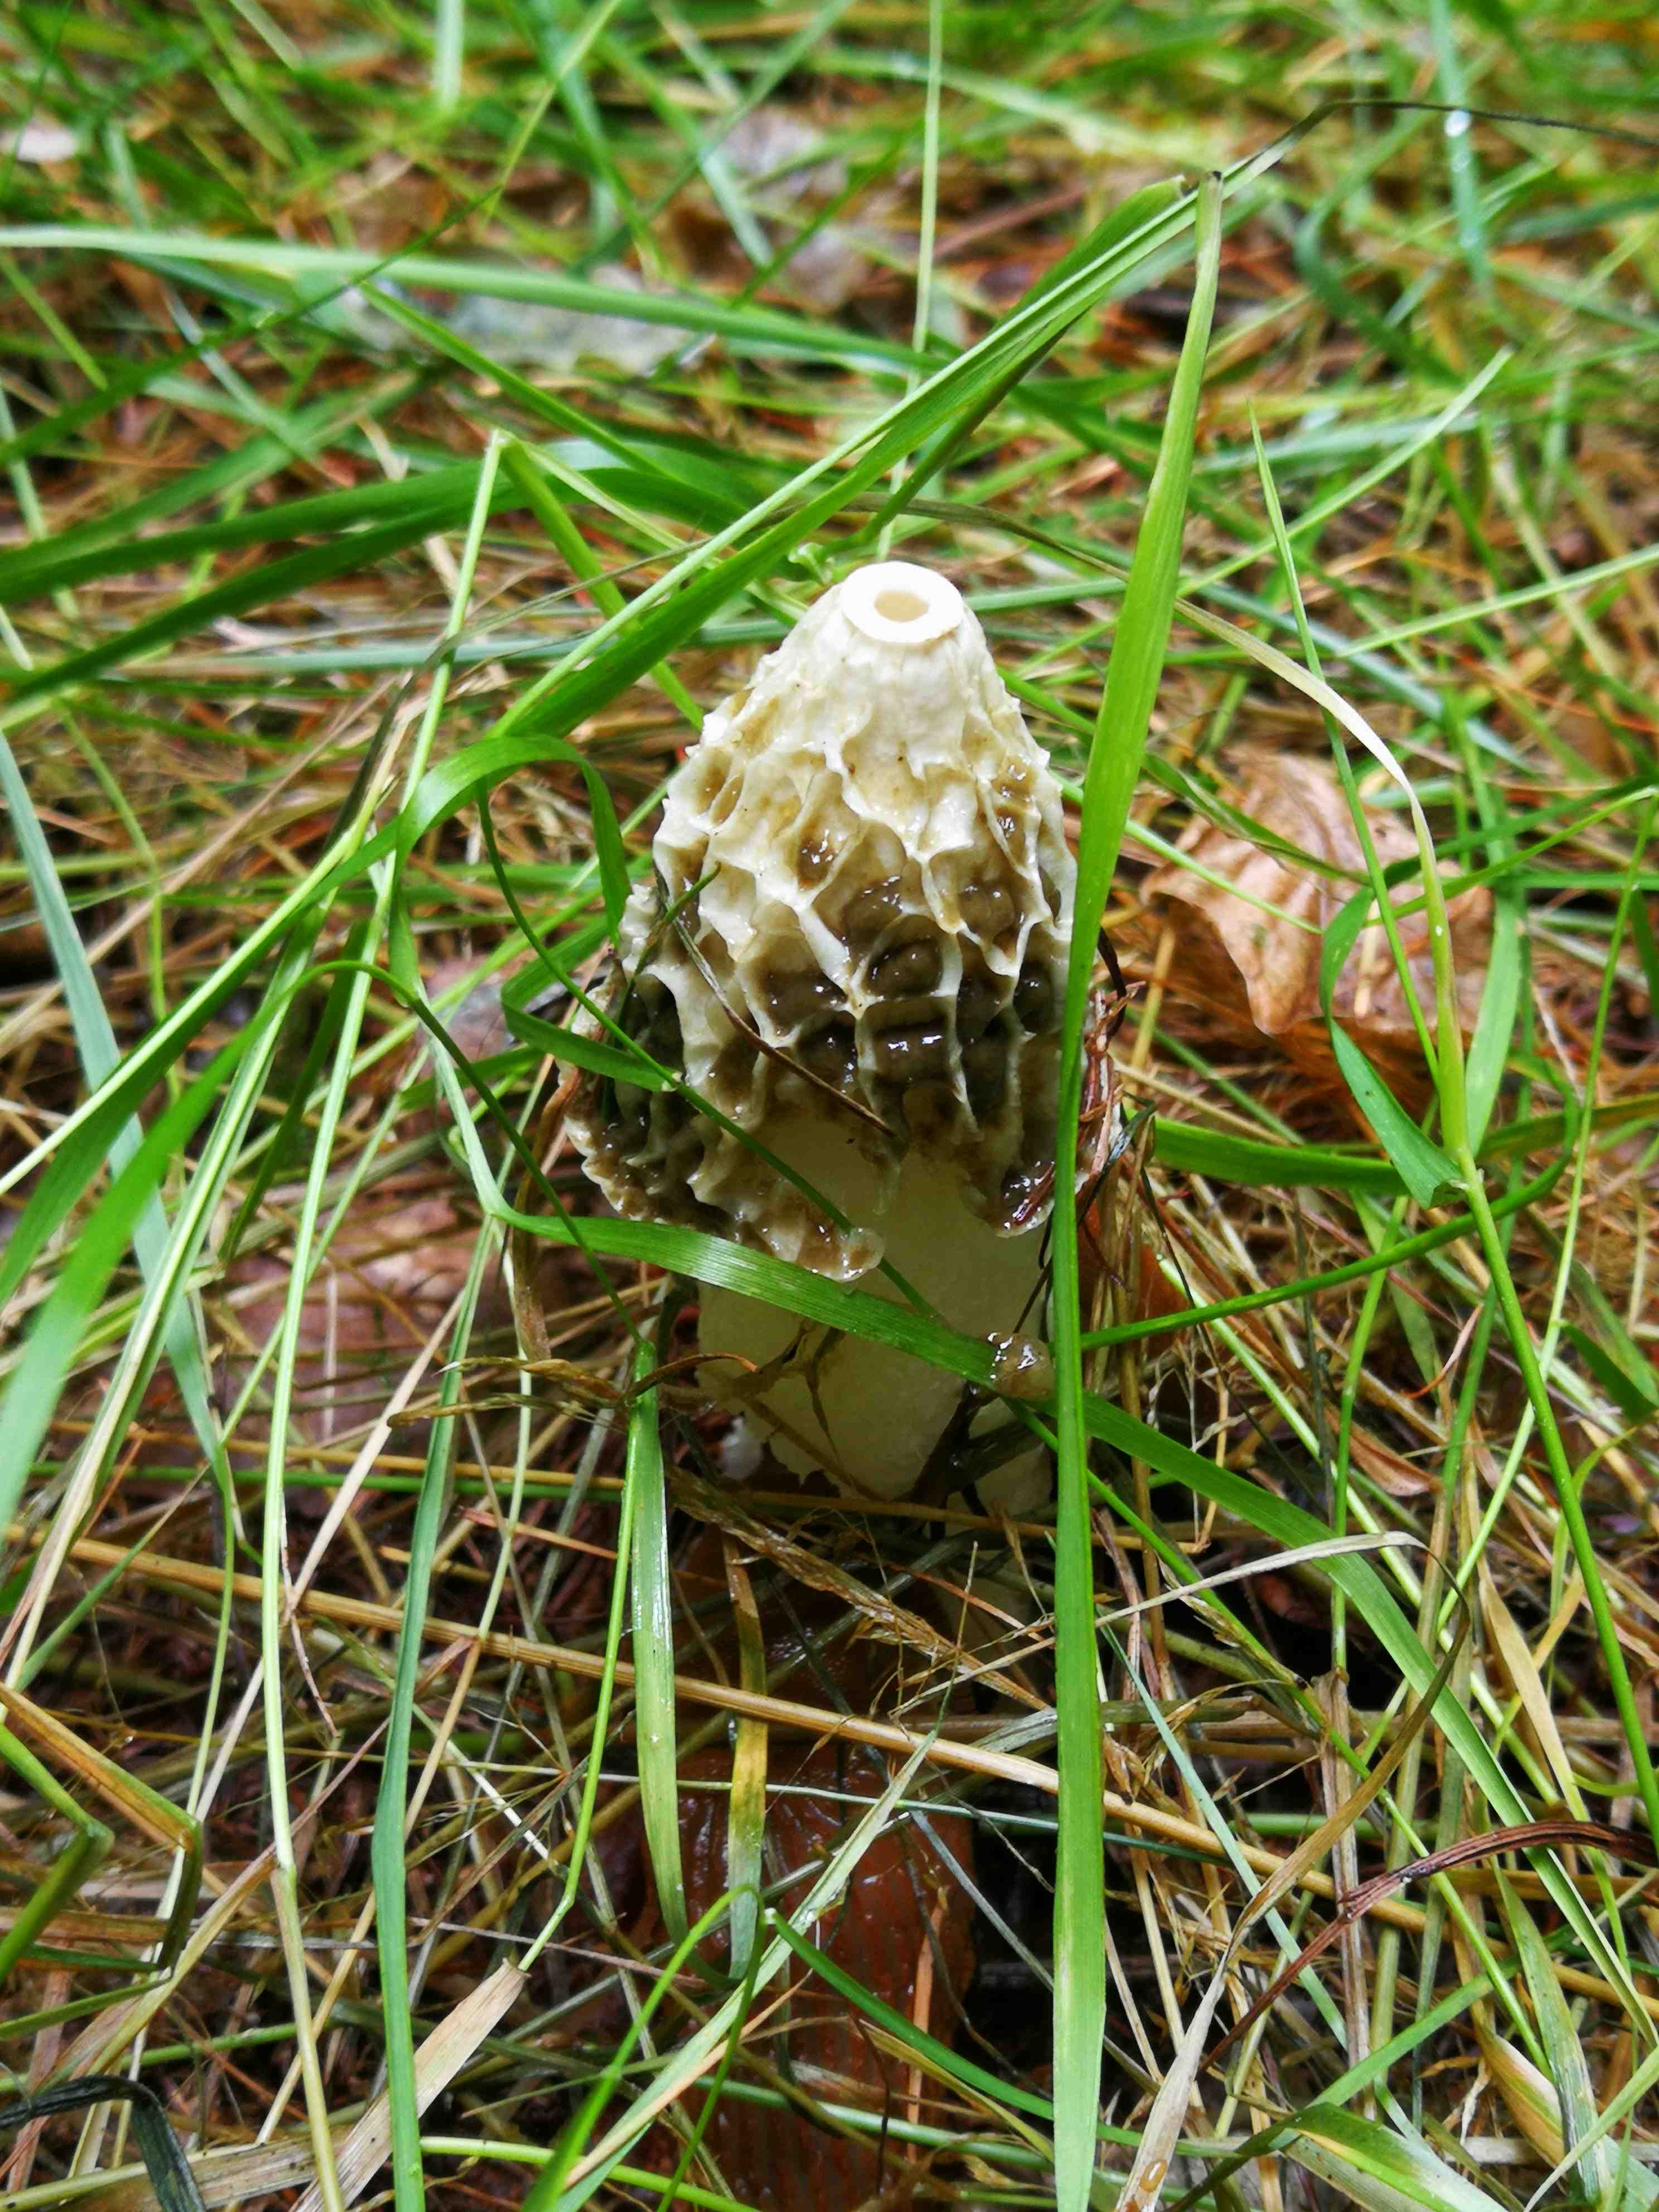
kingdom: Fungi
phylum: Basidiomycota
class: Agaricomycetes
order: Phallales
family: Phallaceae
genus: Phallus
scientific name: Phallus impudicus
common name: almindelig stinksvamp
